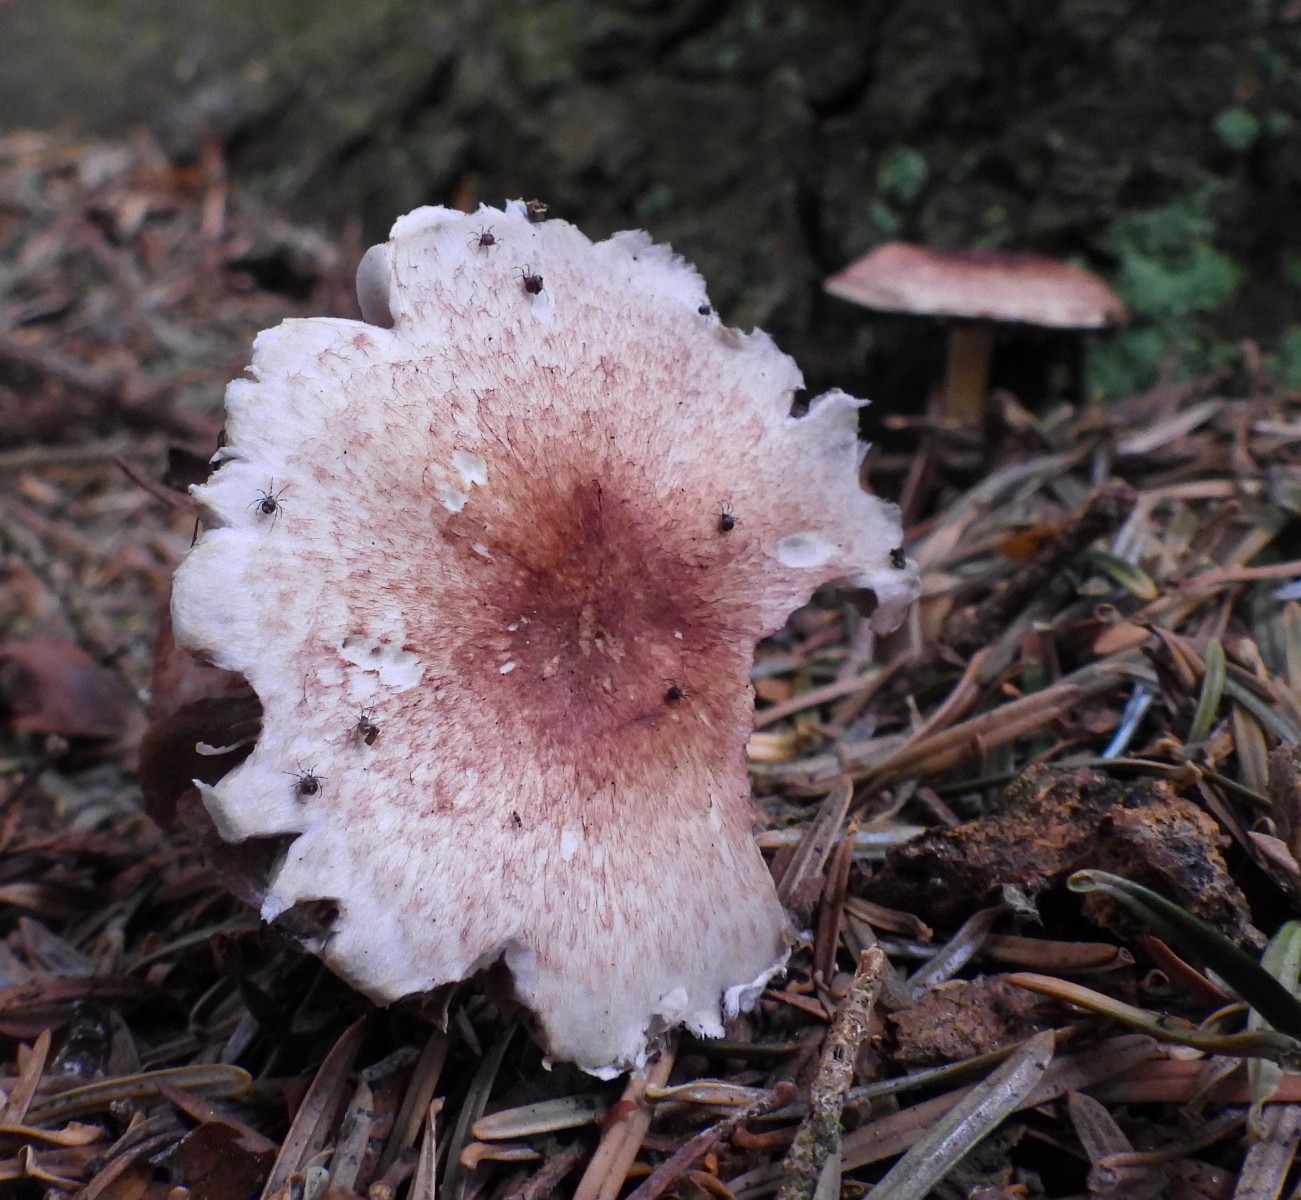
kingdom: Fungi
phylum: Basidiomycota
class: Agaricomycetes
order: Agaricales
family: Agaricaceae
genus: Agaricus
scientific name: Agaricus
